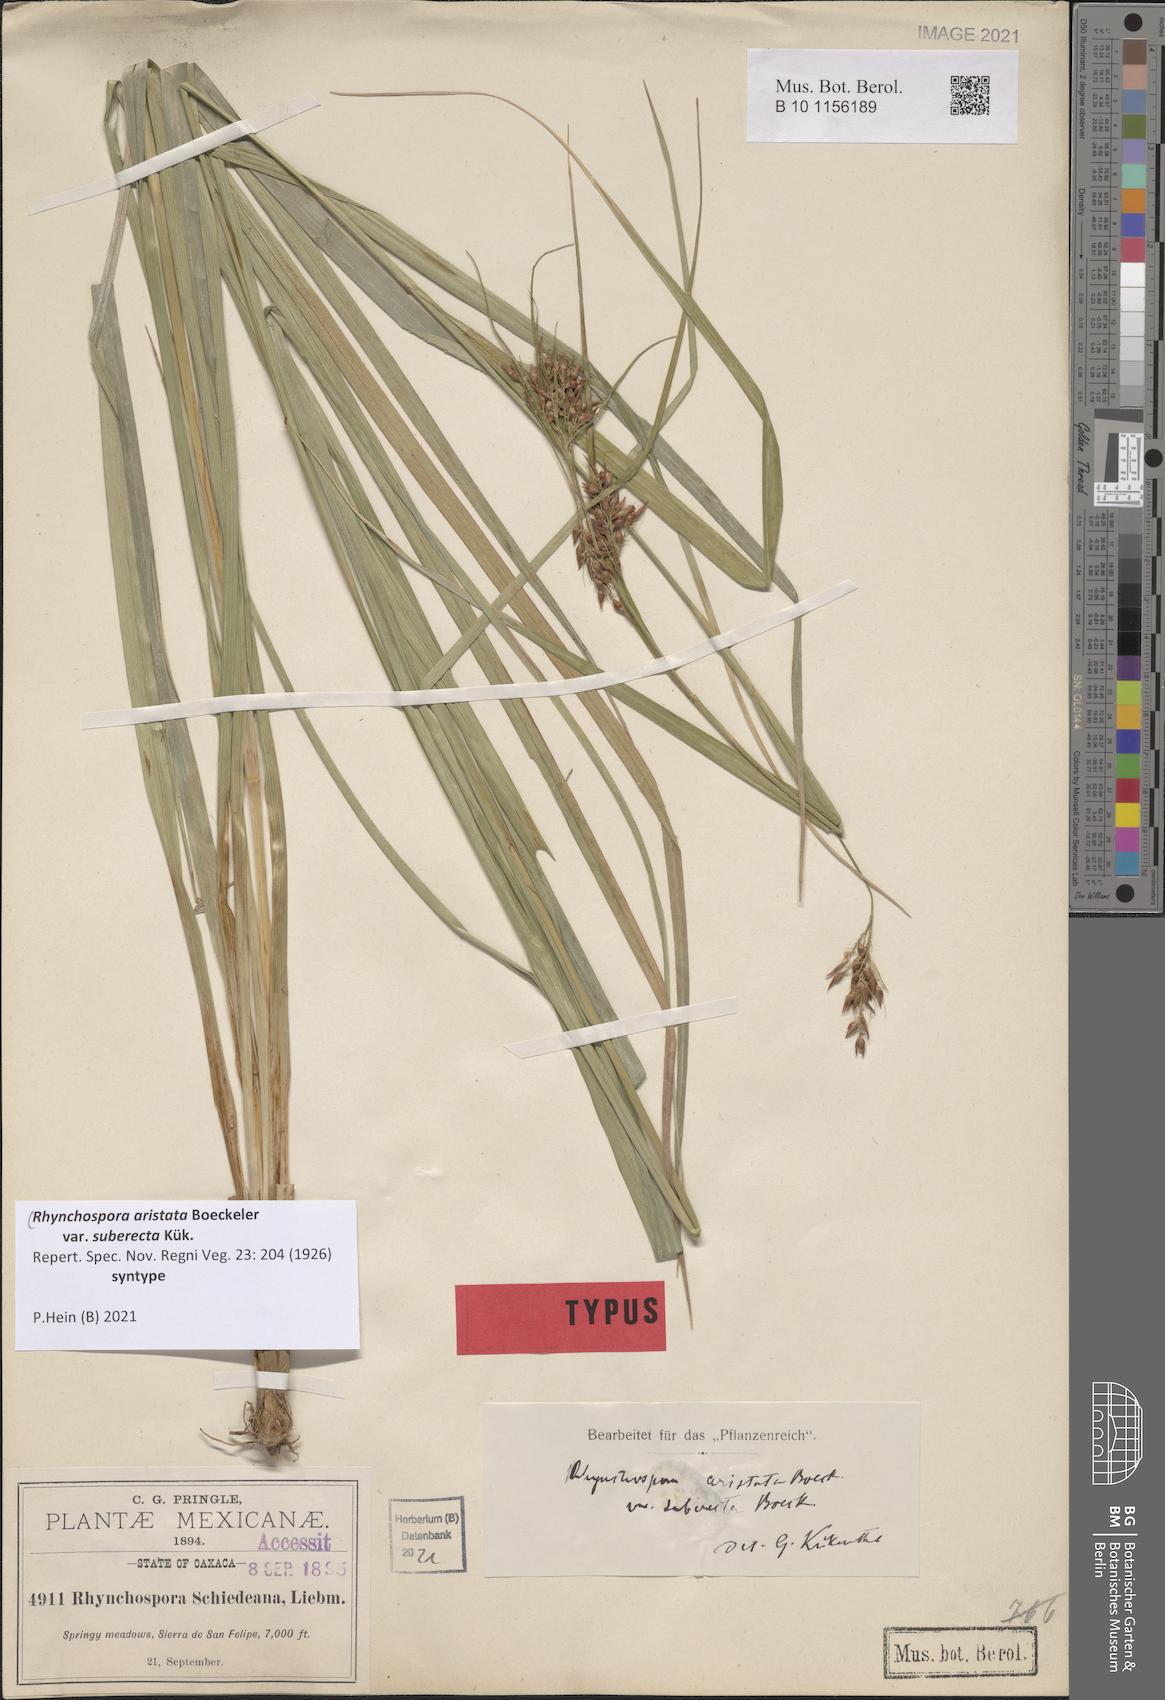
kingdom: Plantae
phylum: Tracheophyta
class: Liliopsida
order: Poales
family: Cyperaceae
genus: Rhynchospora
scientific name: Rhynchospora aristata
